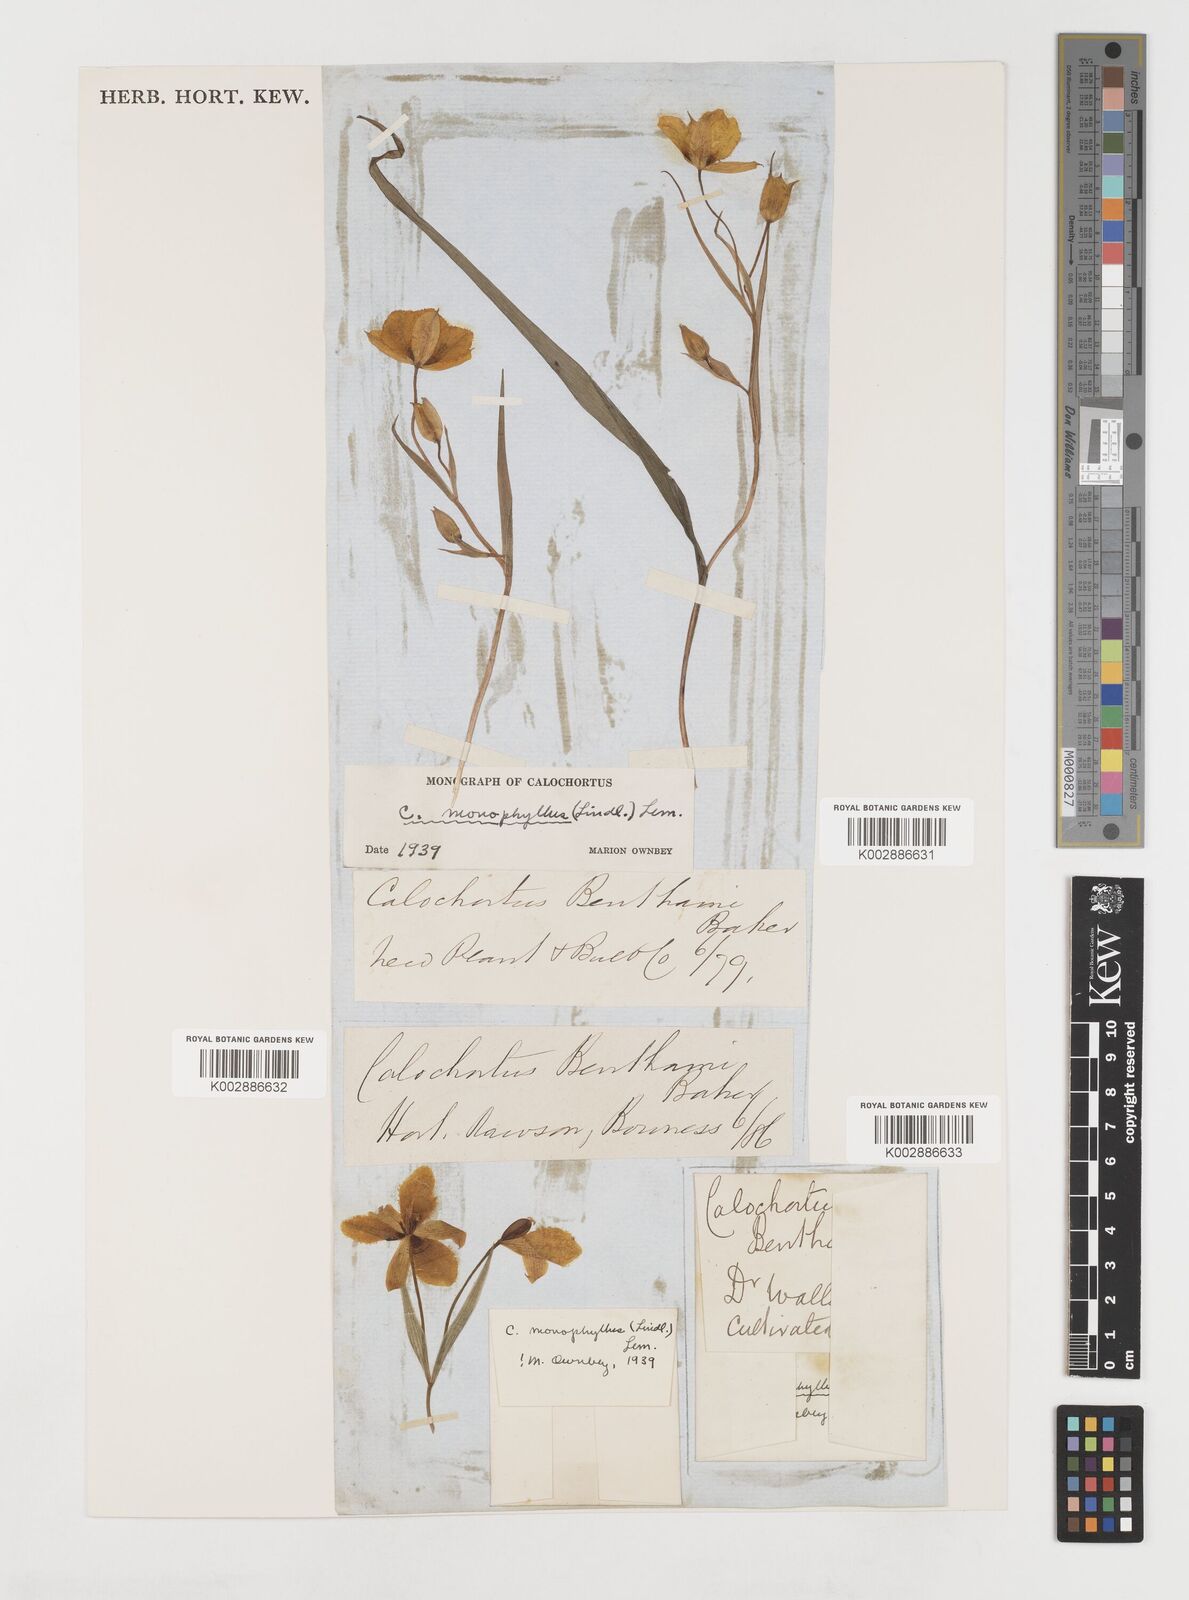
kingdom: Plantae
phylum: Tracheophyta
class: Liliopsida
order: Liliales
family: Liliaceae
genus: Calochortus
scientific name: Calochortus monophyllus
